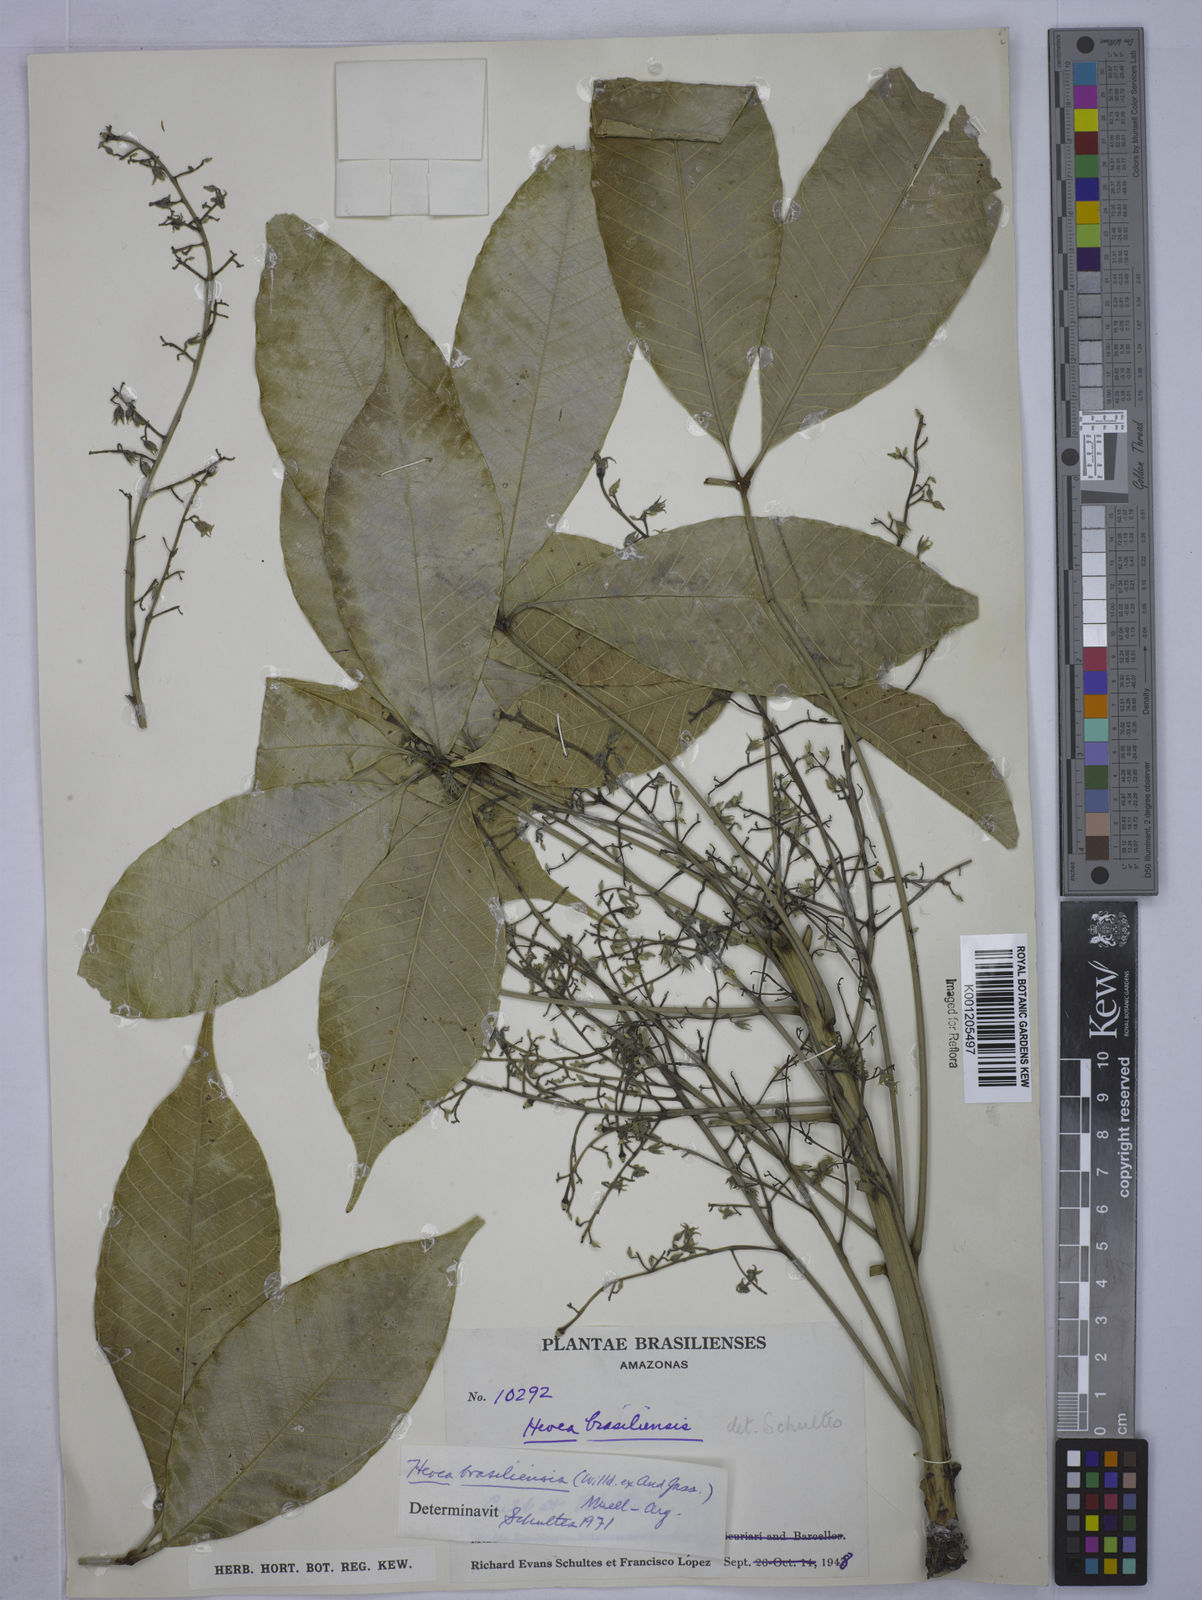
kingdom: Plantae
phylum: Tracheophyta
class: Magnoliopsida
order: Malpighiales
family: Euphorbiaceae
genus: Hevea
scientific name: Hevea
